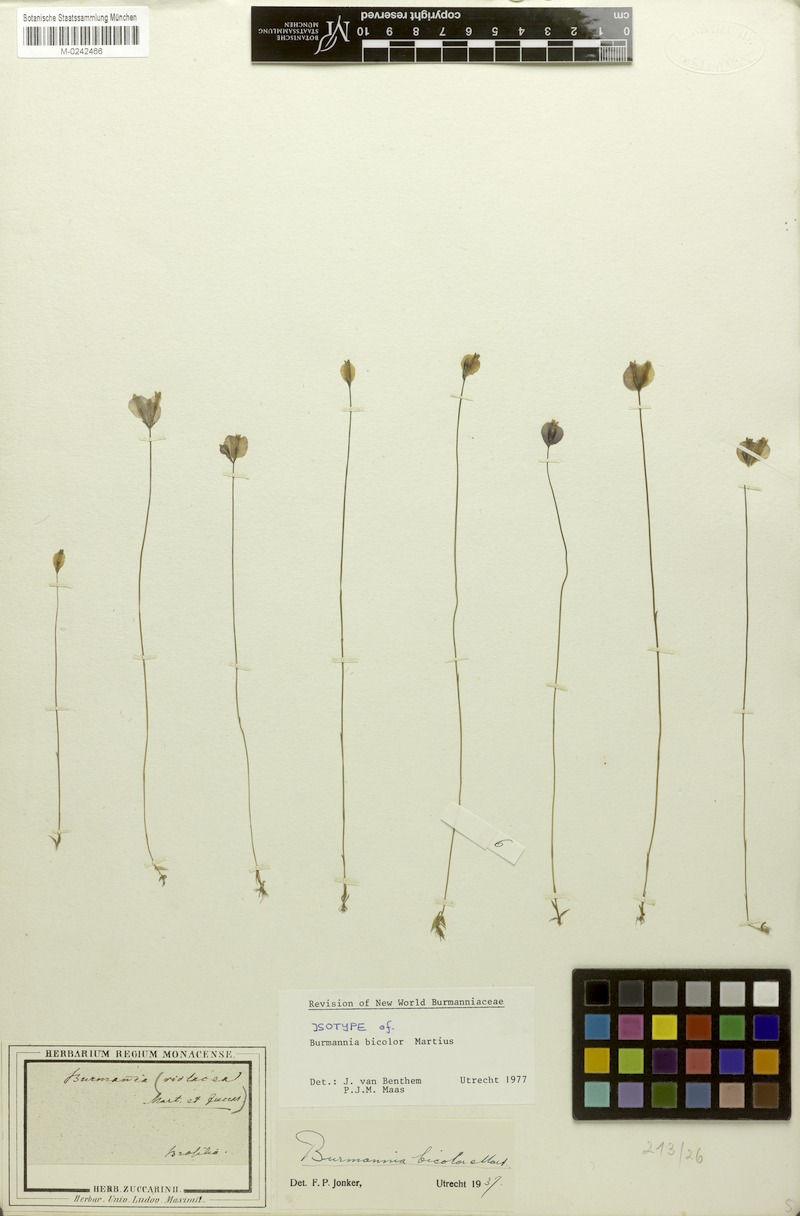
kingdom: Plantae
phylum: Tracheophyta
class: Liliopsida
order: Dioscoreales
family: Burmanniaceae
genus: Burmannia
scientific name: Burmannia bicolor
